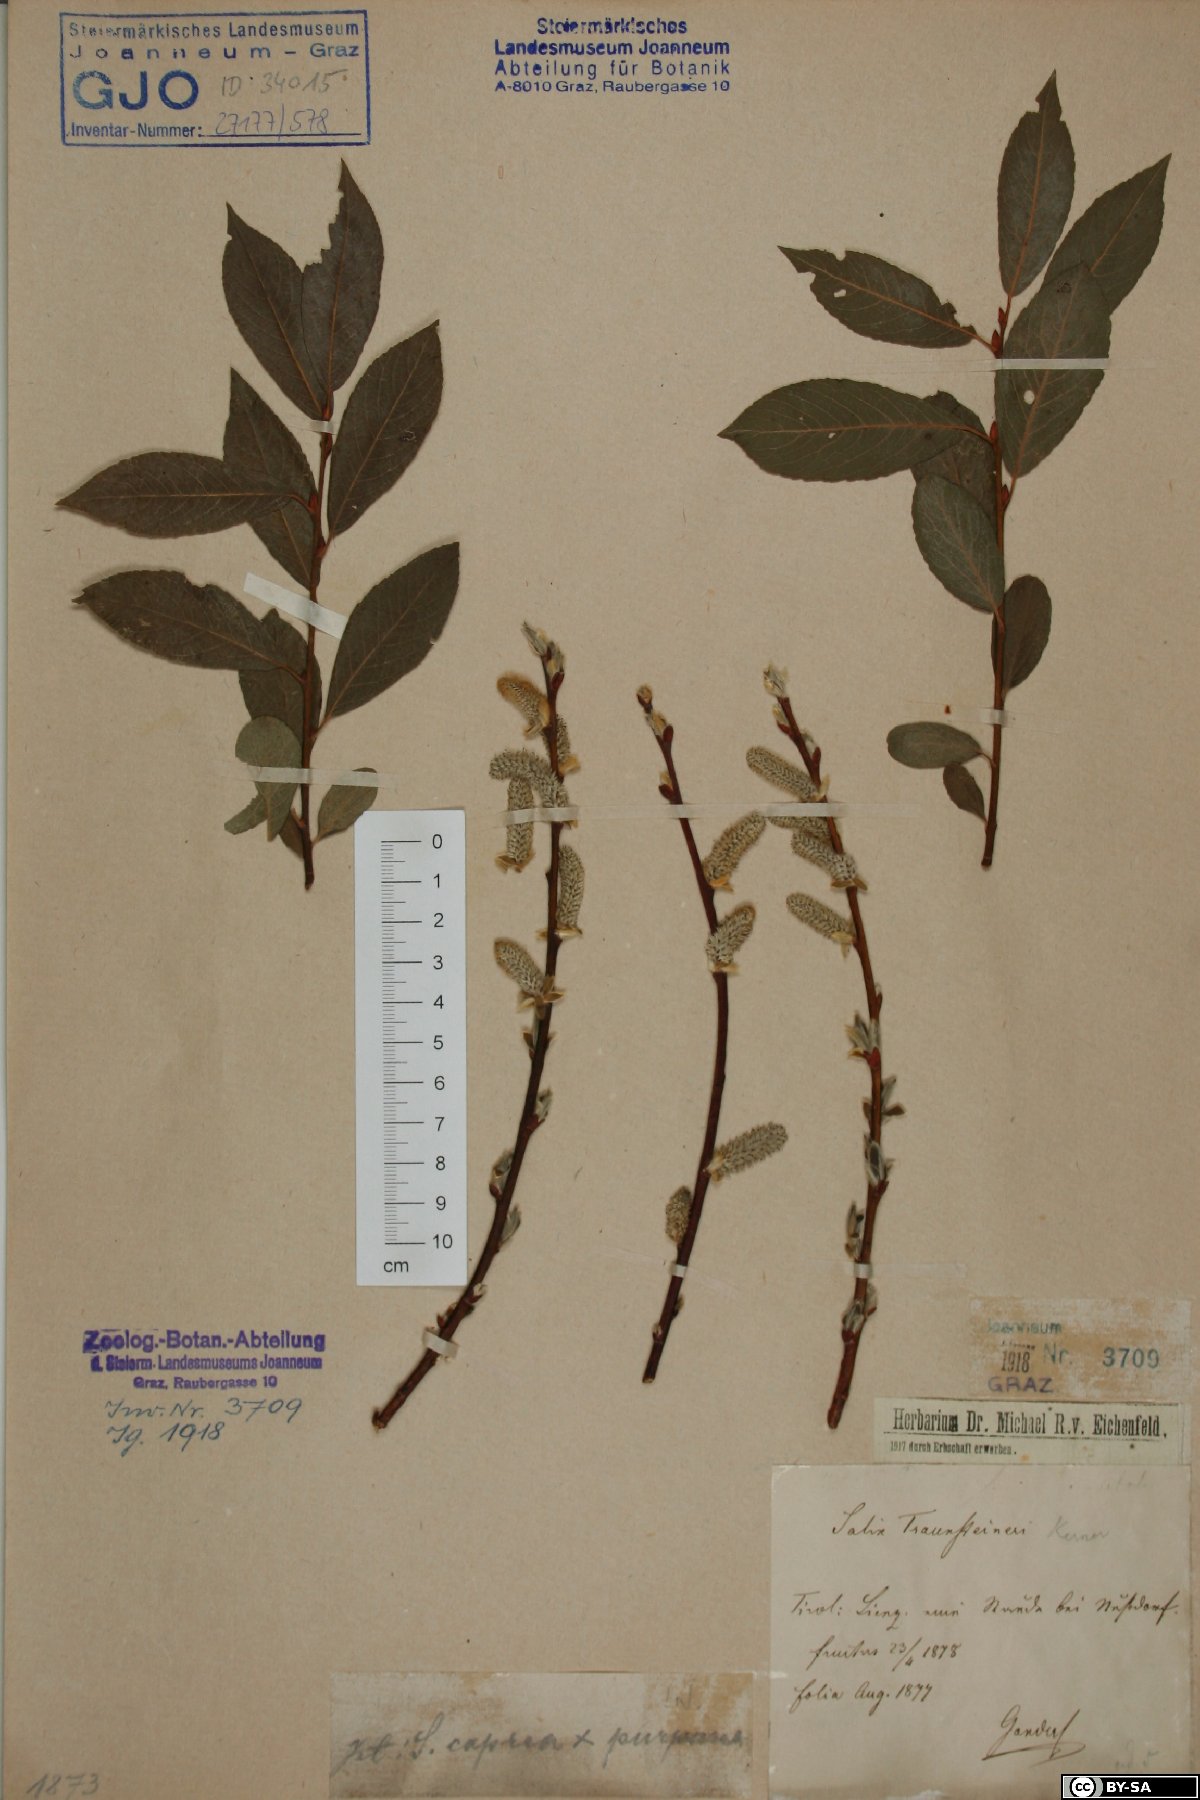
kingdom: Plantae
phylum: Tracheophyta
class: Magnoliopsida
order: Malpighiales
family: Salicaceae
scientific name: Salicaceae
